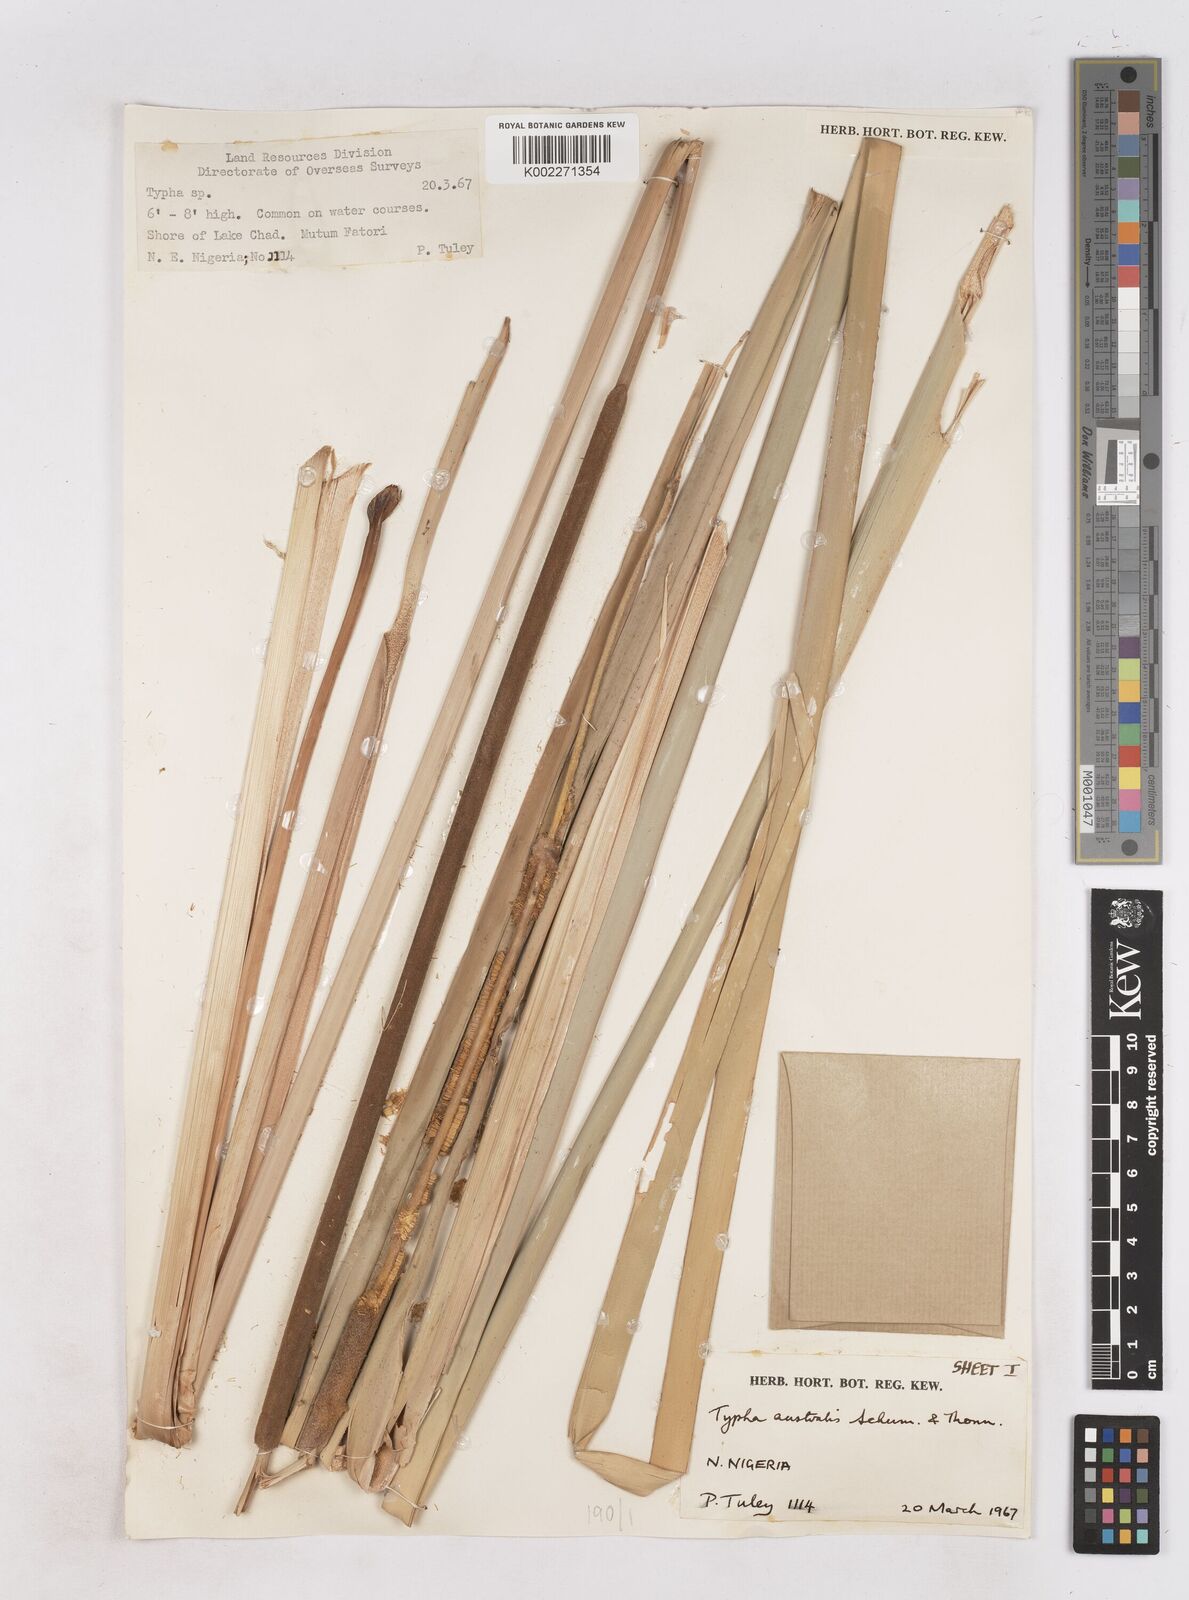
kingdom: Plantae
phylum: Tracheophyta
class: Liliopsida
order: Poales
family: Typhaceae
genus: Typha
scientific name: Typha domingensis
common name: Southern cattail
